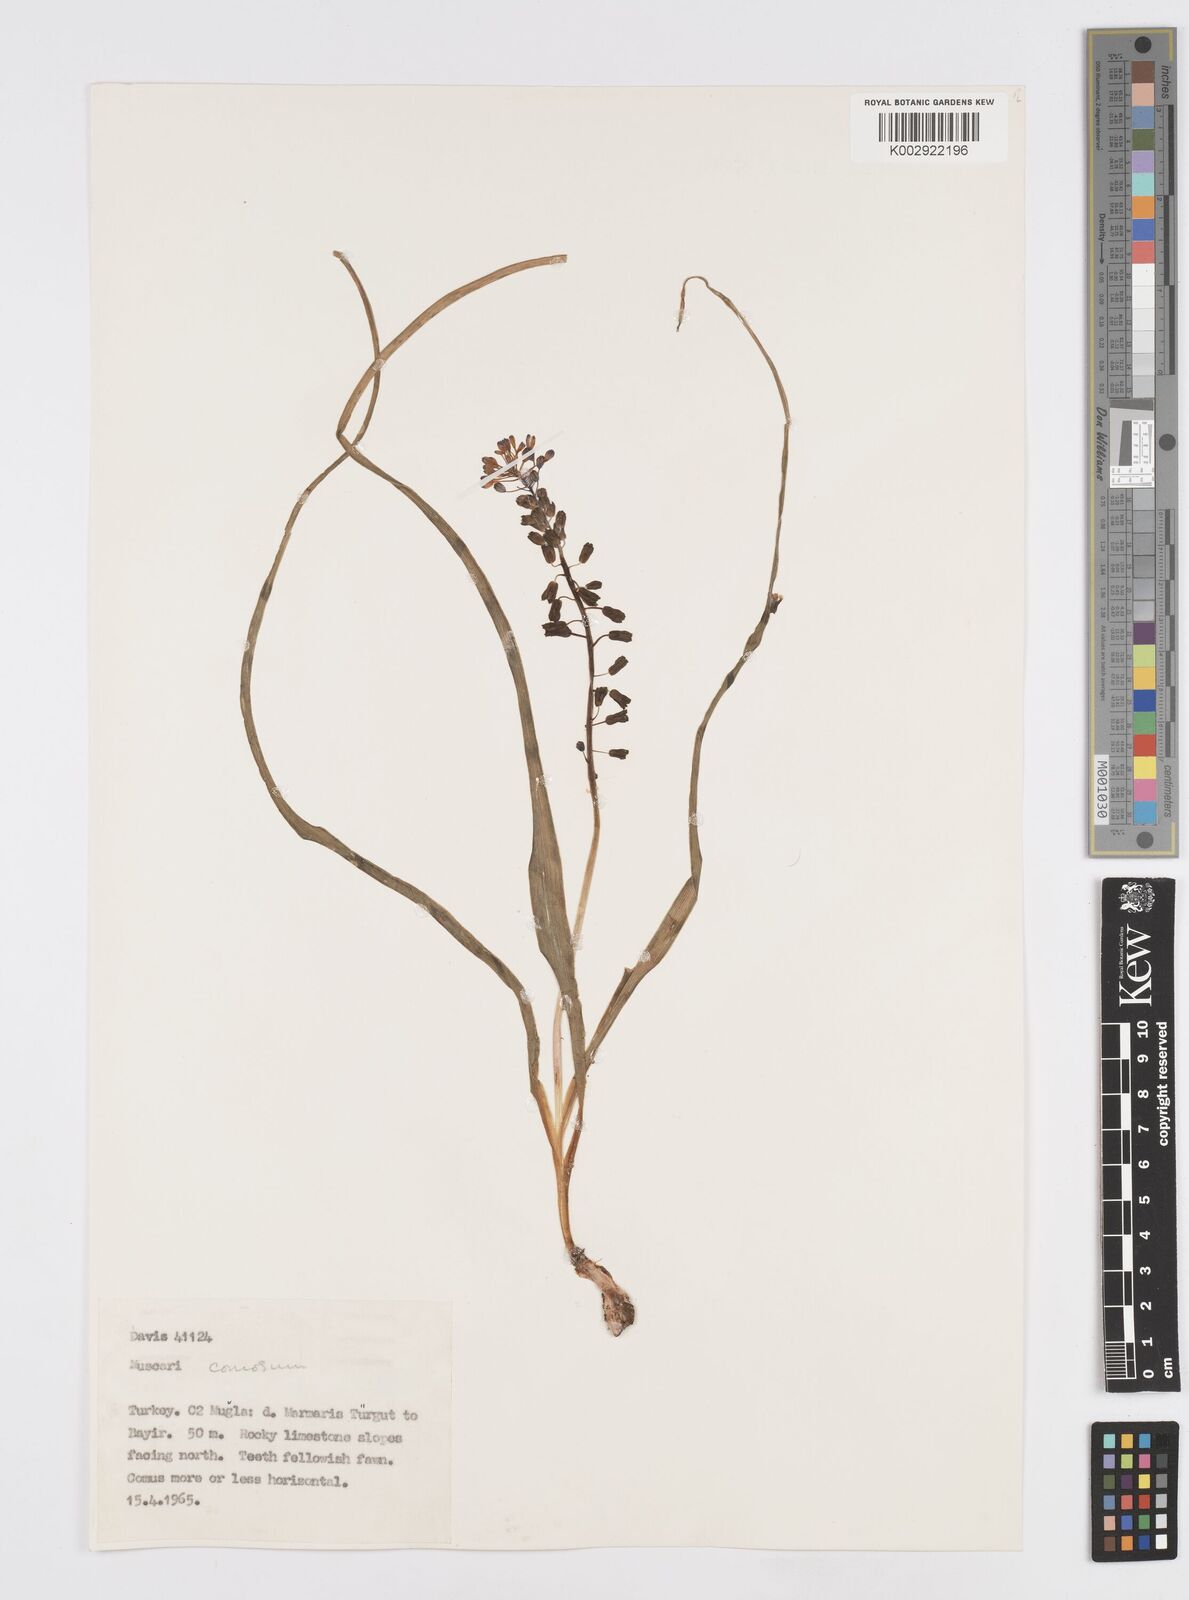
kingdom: Plantae
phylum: Tracheophyta
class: Liliopsida
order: Asparagales
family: Asparagaceae
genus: Muscari
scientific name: Muscari comosum
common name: Tassel hyacinth
